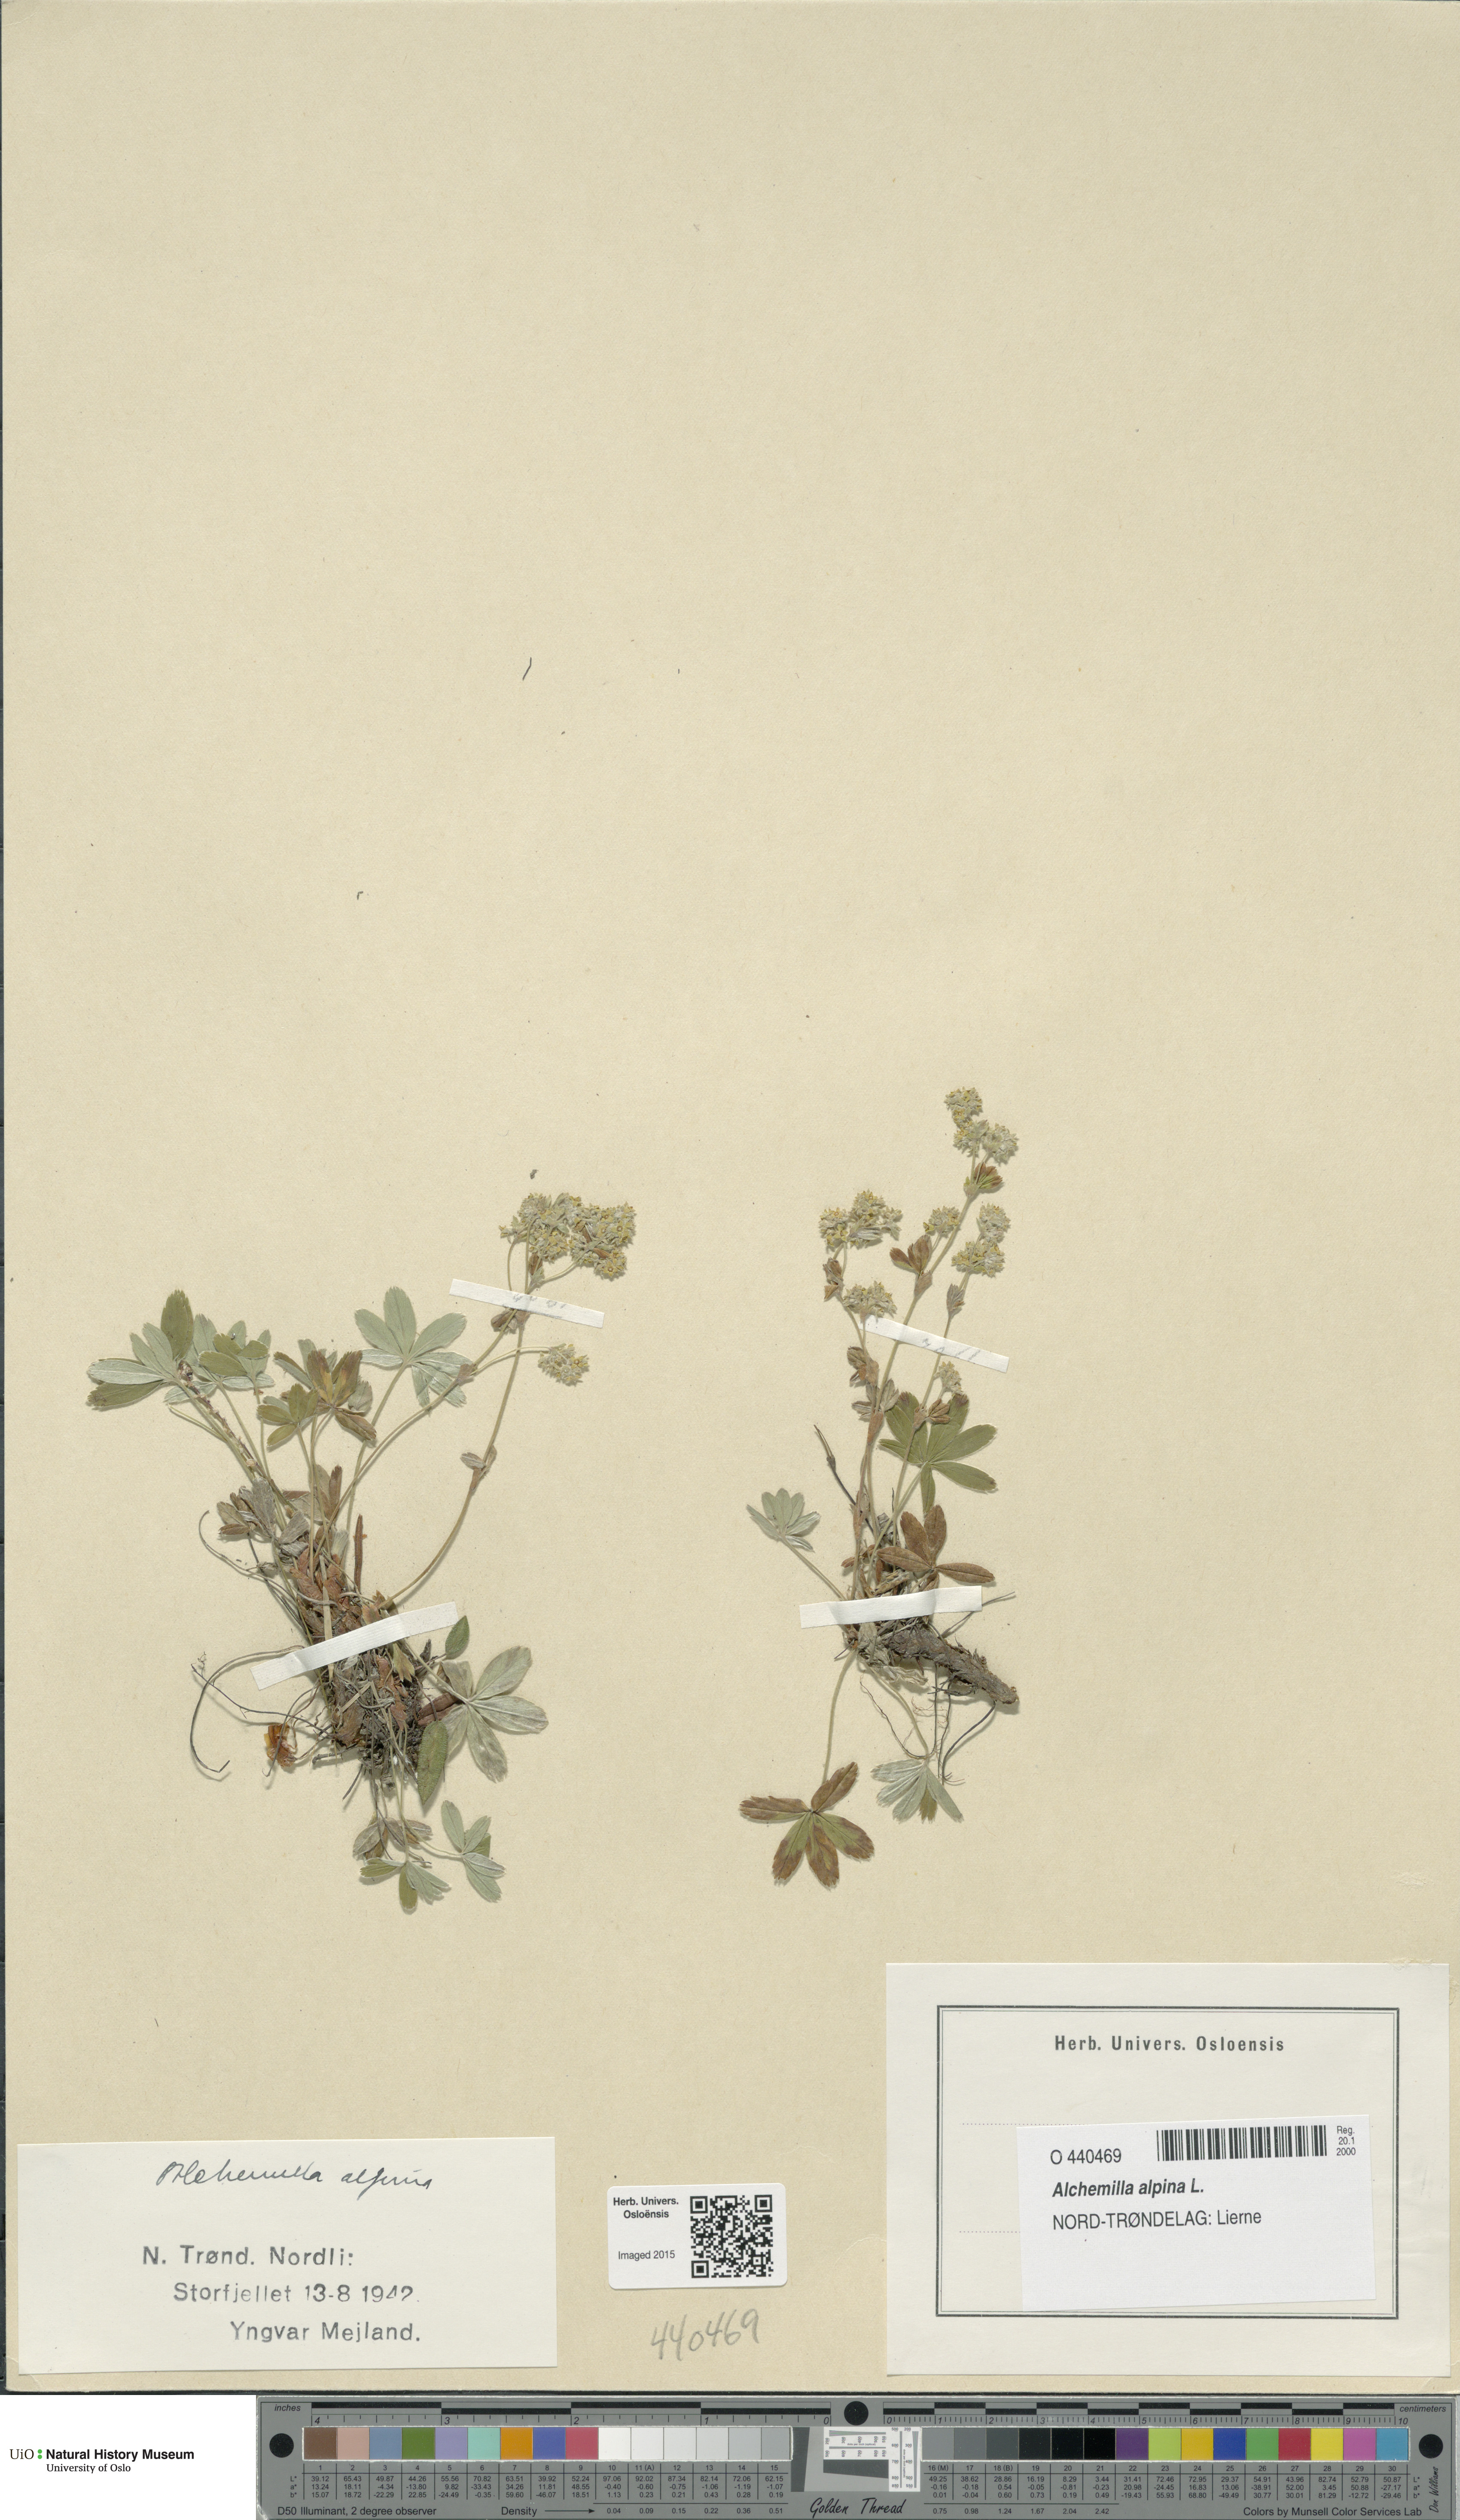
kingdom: Plantae
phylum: Tracheophyta
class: Magnoliopsida
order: Rosales
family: Rosaceae
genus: Alchemilla
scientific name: Alchemilla alpina
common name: Alpine lady's-mantle
